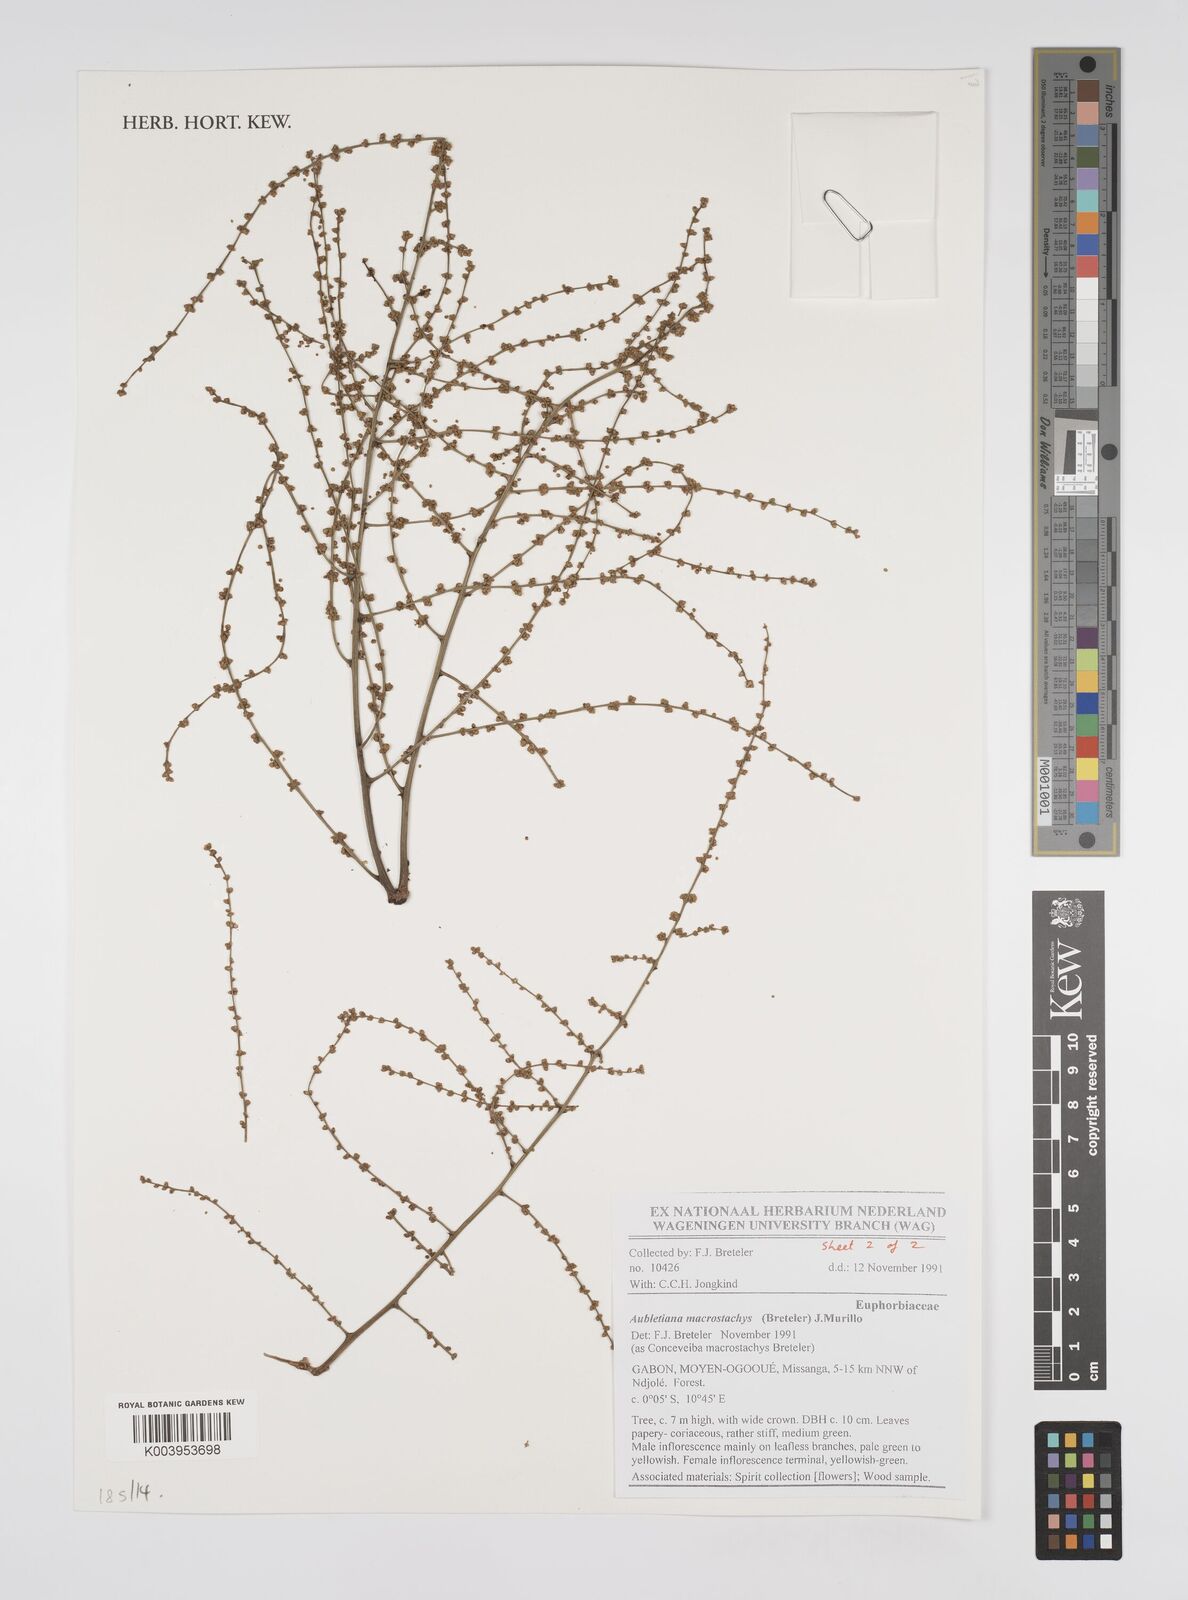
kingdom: Plantae
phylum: Tracheophyta
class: Magnoliopsida
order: Malpighiales
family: Euphorbiaceae
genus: Aubletiana
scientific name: Aubletiana macrostachys
